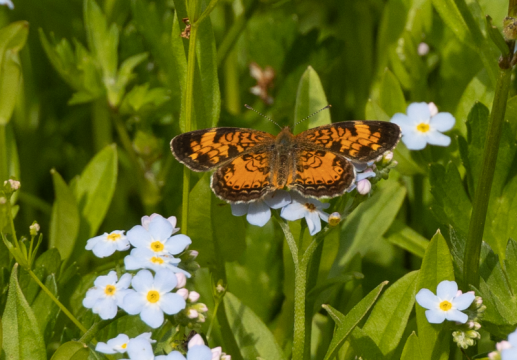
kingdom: Animalia
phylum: Arthropoda
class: Insecta
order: Lepidoptera
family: Nymphalidae
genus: Phyciodes
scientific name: Phyciodes tharos
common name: Pearl Crescent
